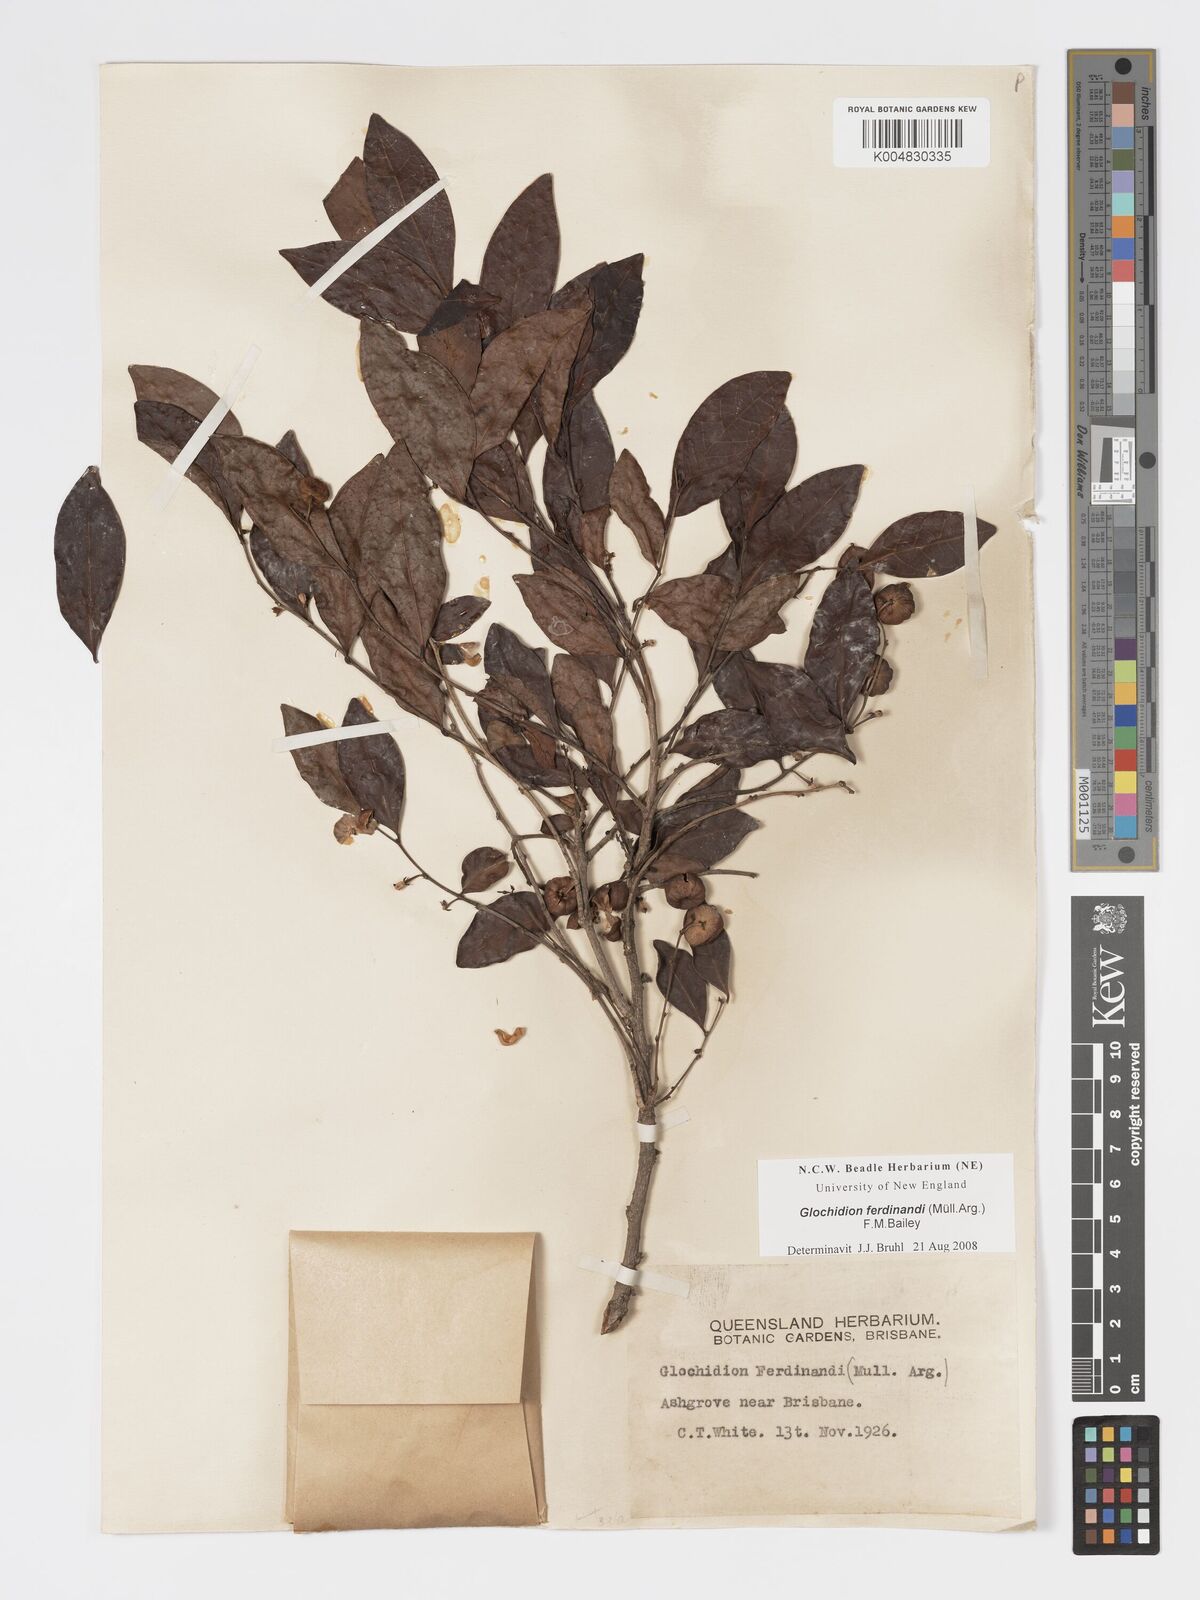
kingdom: Plantae
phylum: Tracheophyta
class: Magnoliopsida
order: Malpighiales
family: Phyllanthaceae
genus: Glochidion
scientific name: Glochidion ferdinandi
